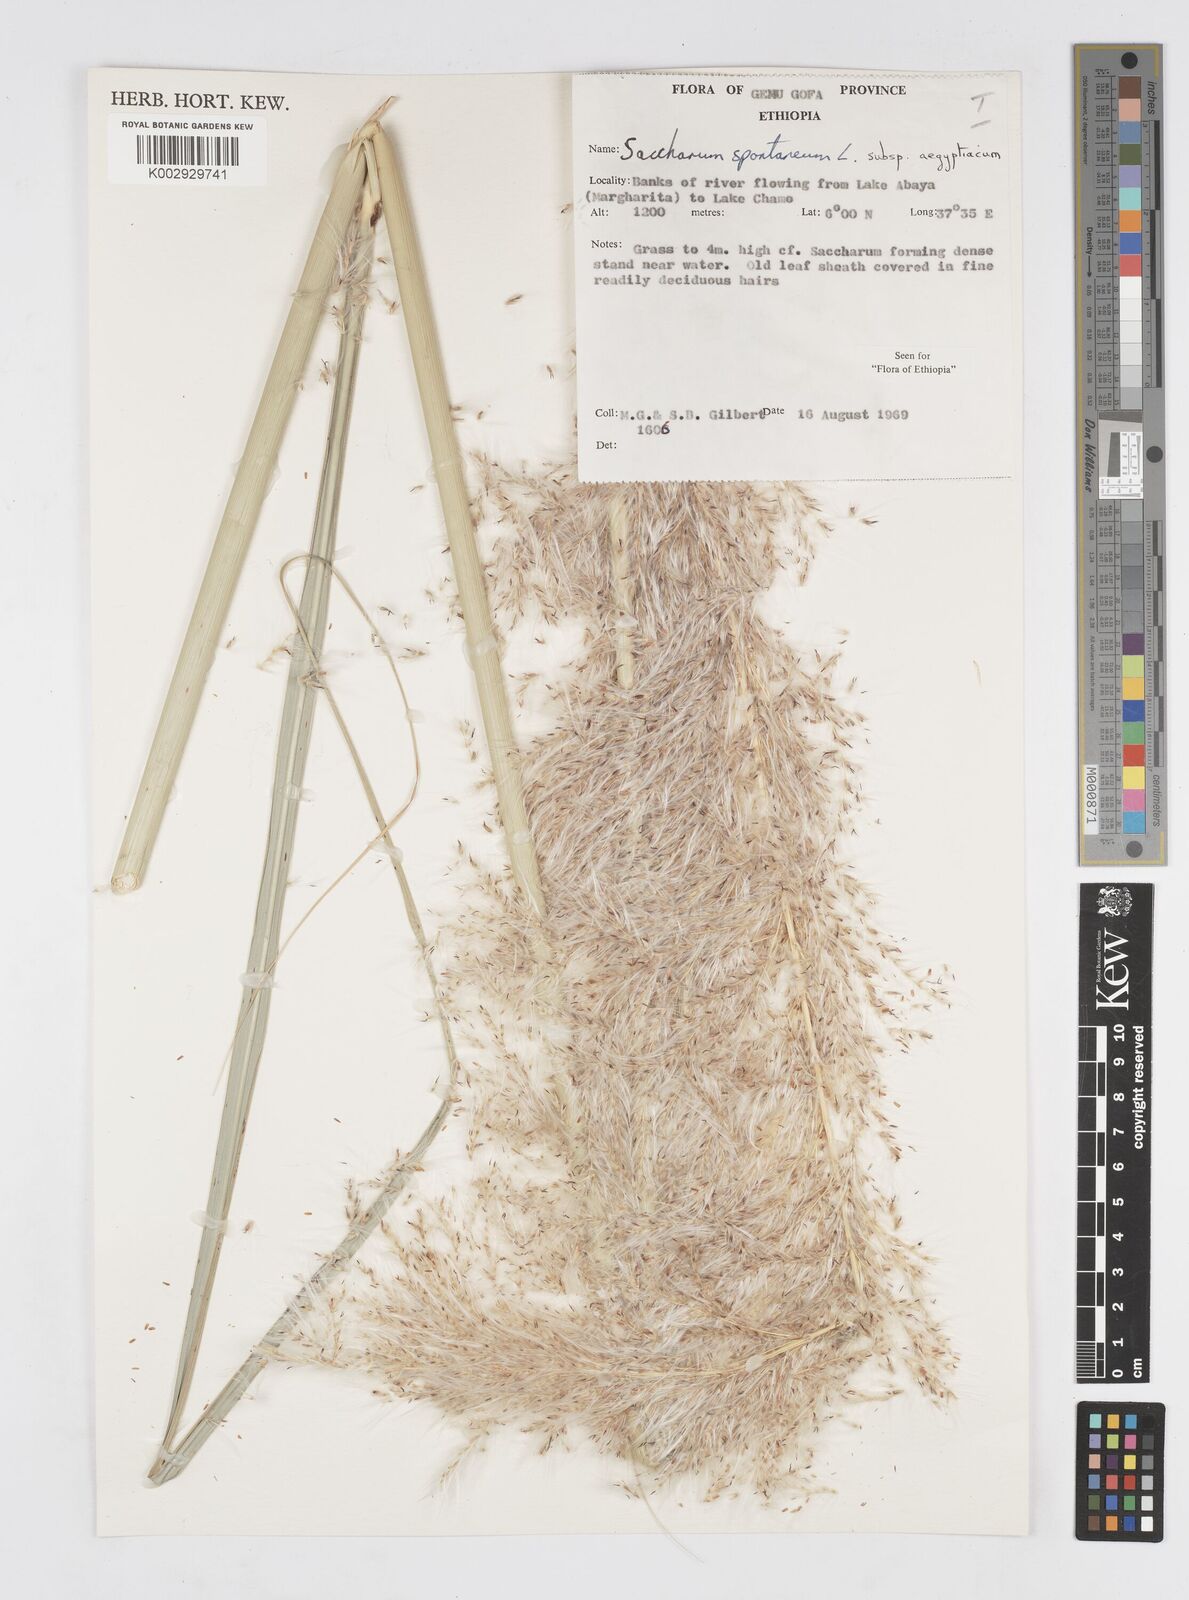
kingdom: Plantae
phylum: Tracheophyta
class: Liliopsida
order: Poales
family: Poaceae
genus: Saccharum
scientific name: Saccharum spontaneum
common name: Wild sugarcane
